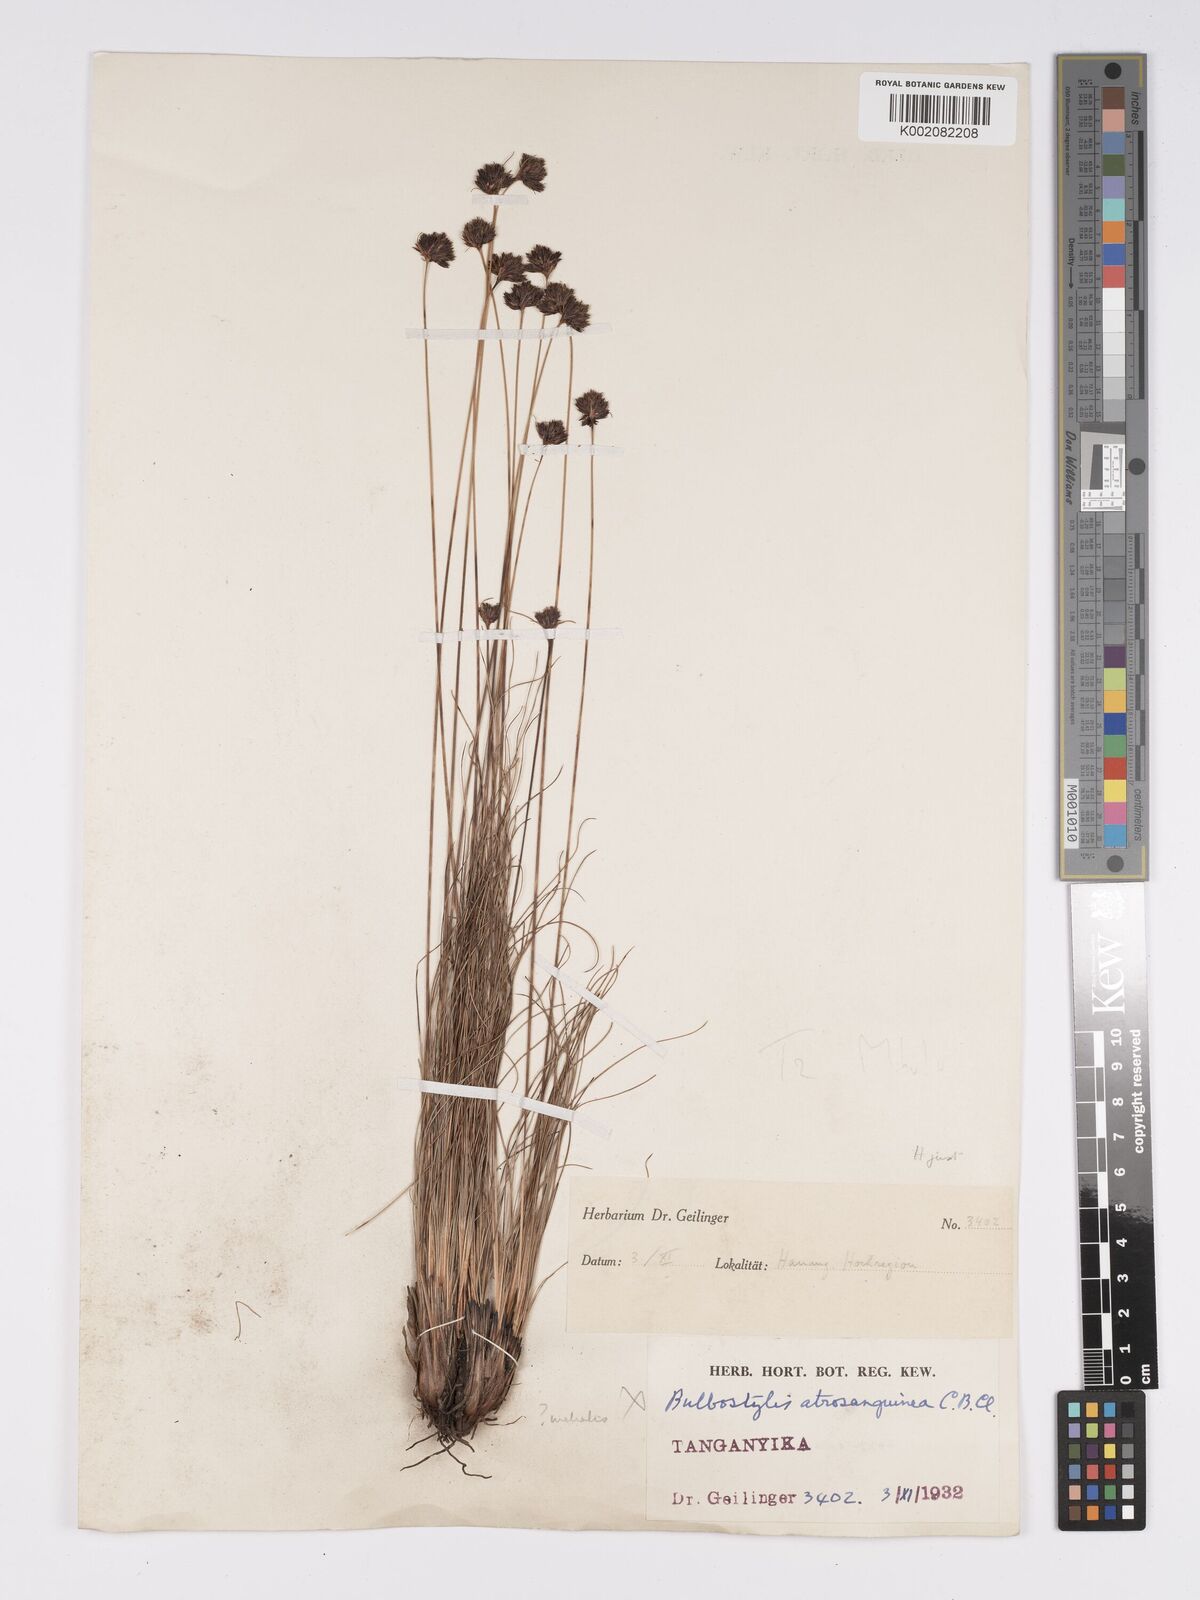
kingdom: Plantae
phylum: Tracheophyta
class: Liliopsida
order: Poales
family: Cyperaceae
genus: Bulbostylis
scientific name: Bulbostylis filamentosa
